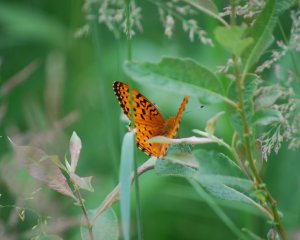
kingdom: Animalia
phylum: Arthropoda
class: Insecta
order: Lepidoptera
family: Nymphalidae
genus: Speyeria
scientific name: Speyeria aphrodite
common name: Aphrodite Fritillary
